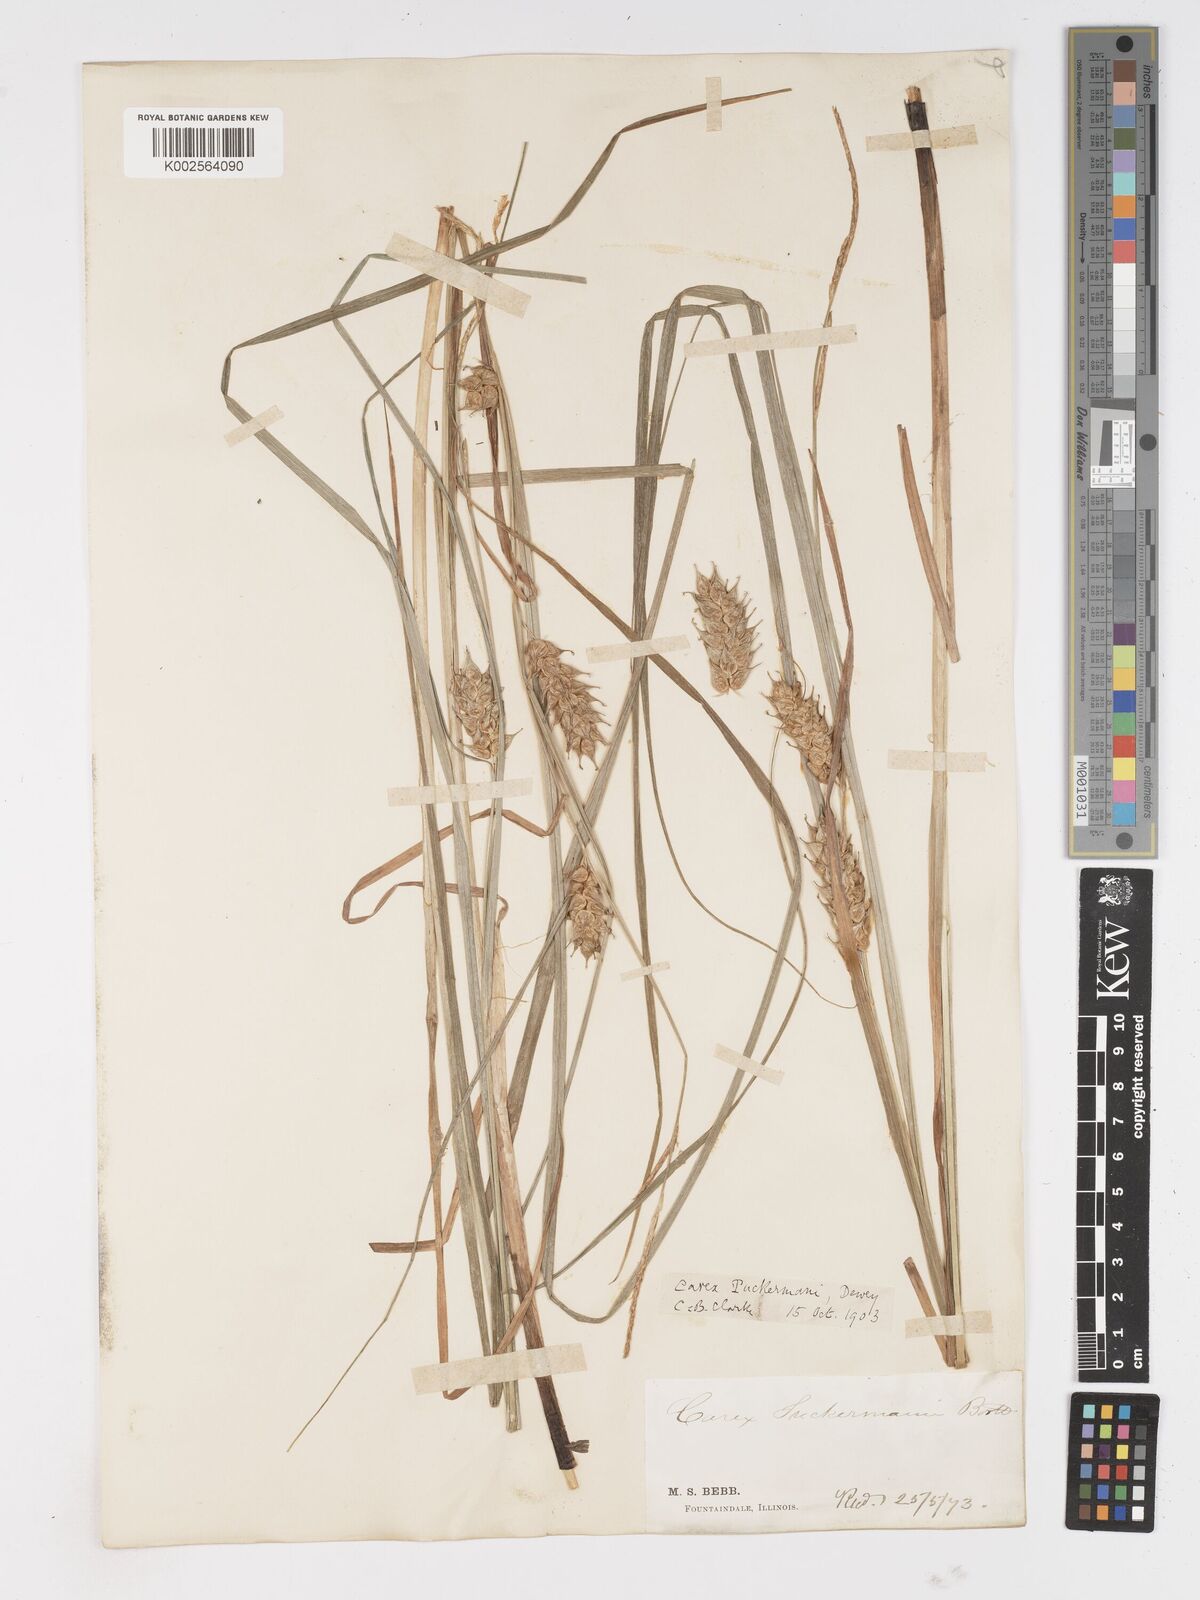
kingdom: Plantae
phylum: Tracheophyta
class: Liliopsida
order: Poales
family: Cyperaceae
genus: Carex
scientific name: Carex tuckermanii
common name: Tuckerman's sedge
